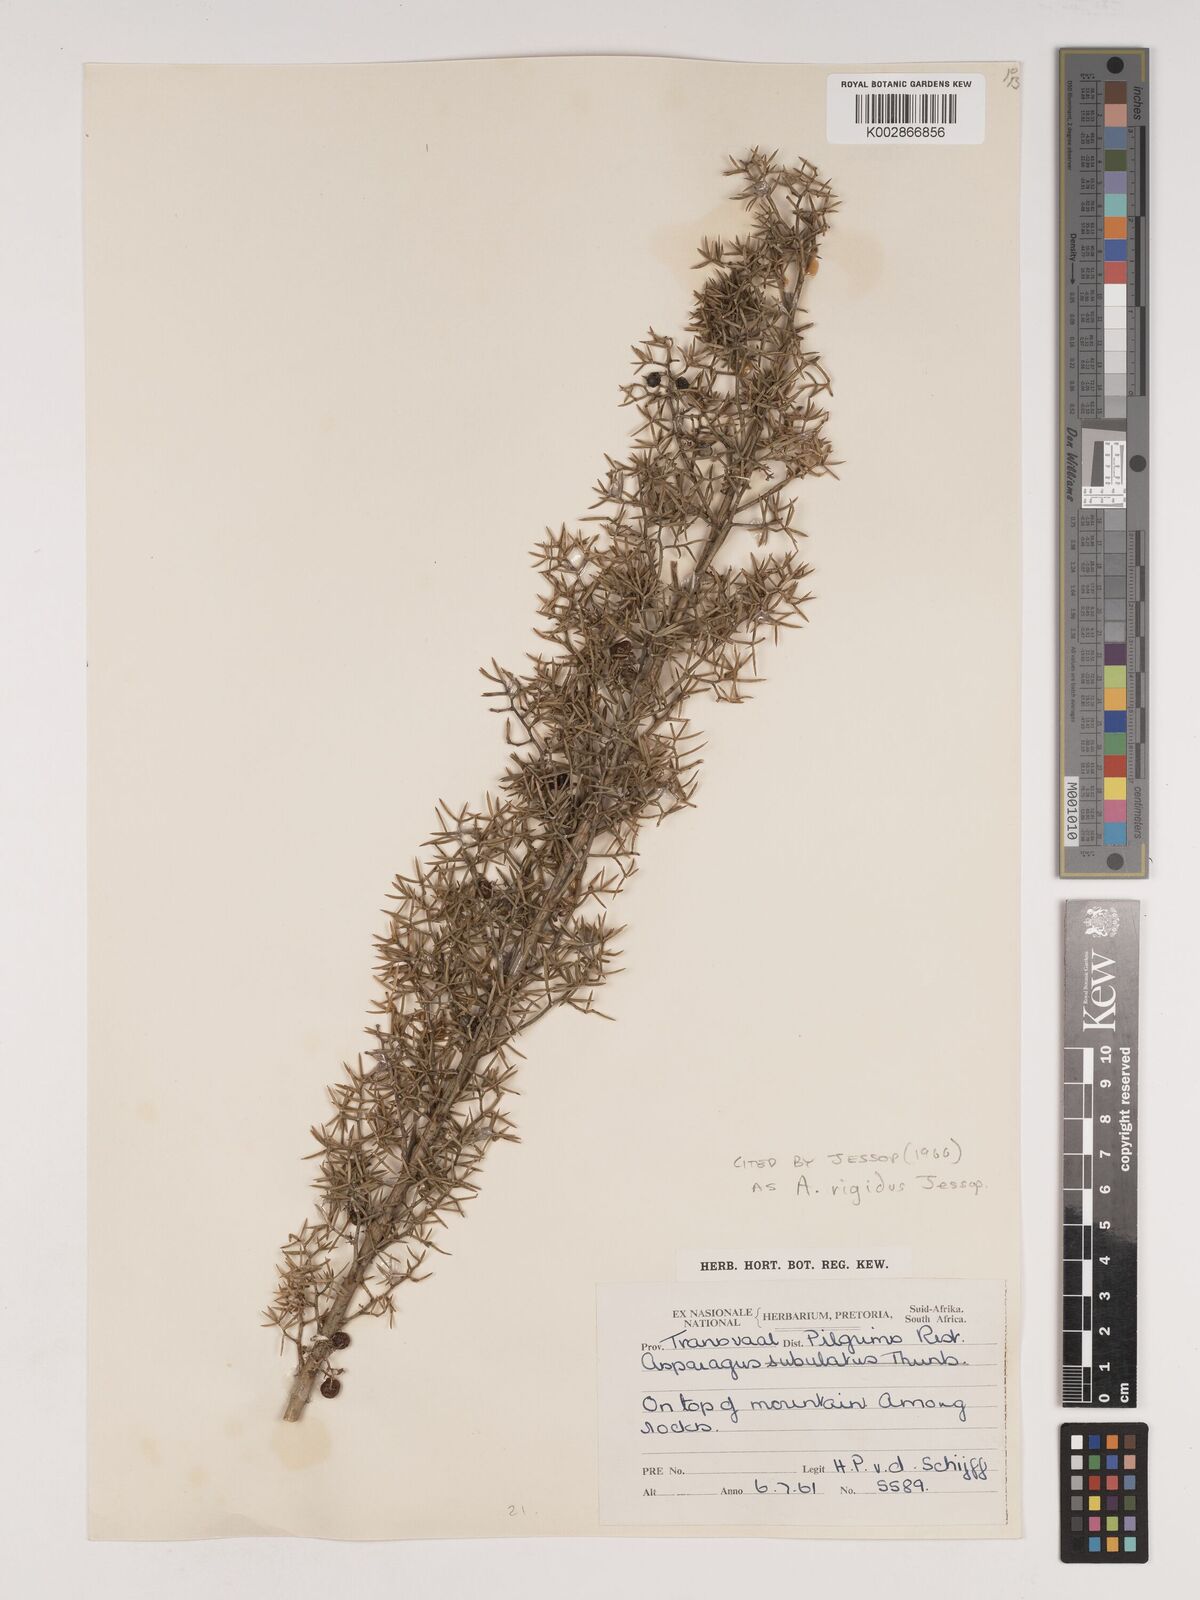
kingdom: Plantae
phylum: Tracheophyta
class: Liliopsida
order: Asparagales
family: Asparagaceae
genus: Asparagus
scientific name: Asparagus rigidus
